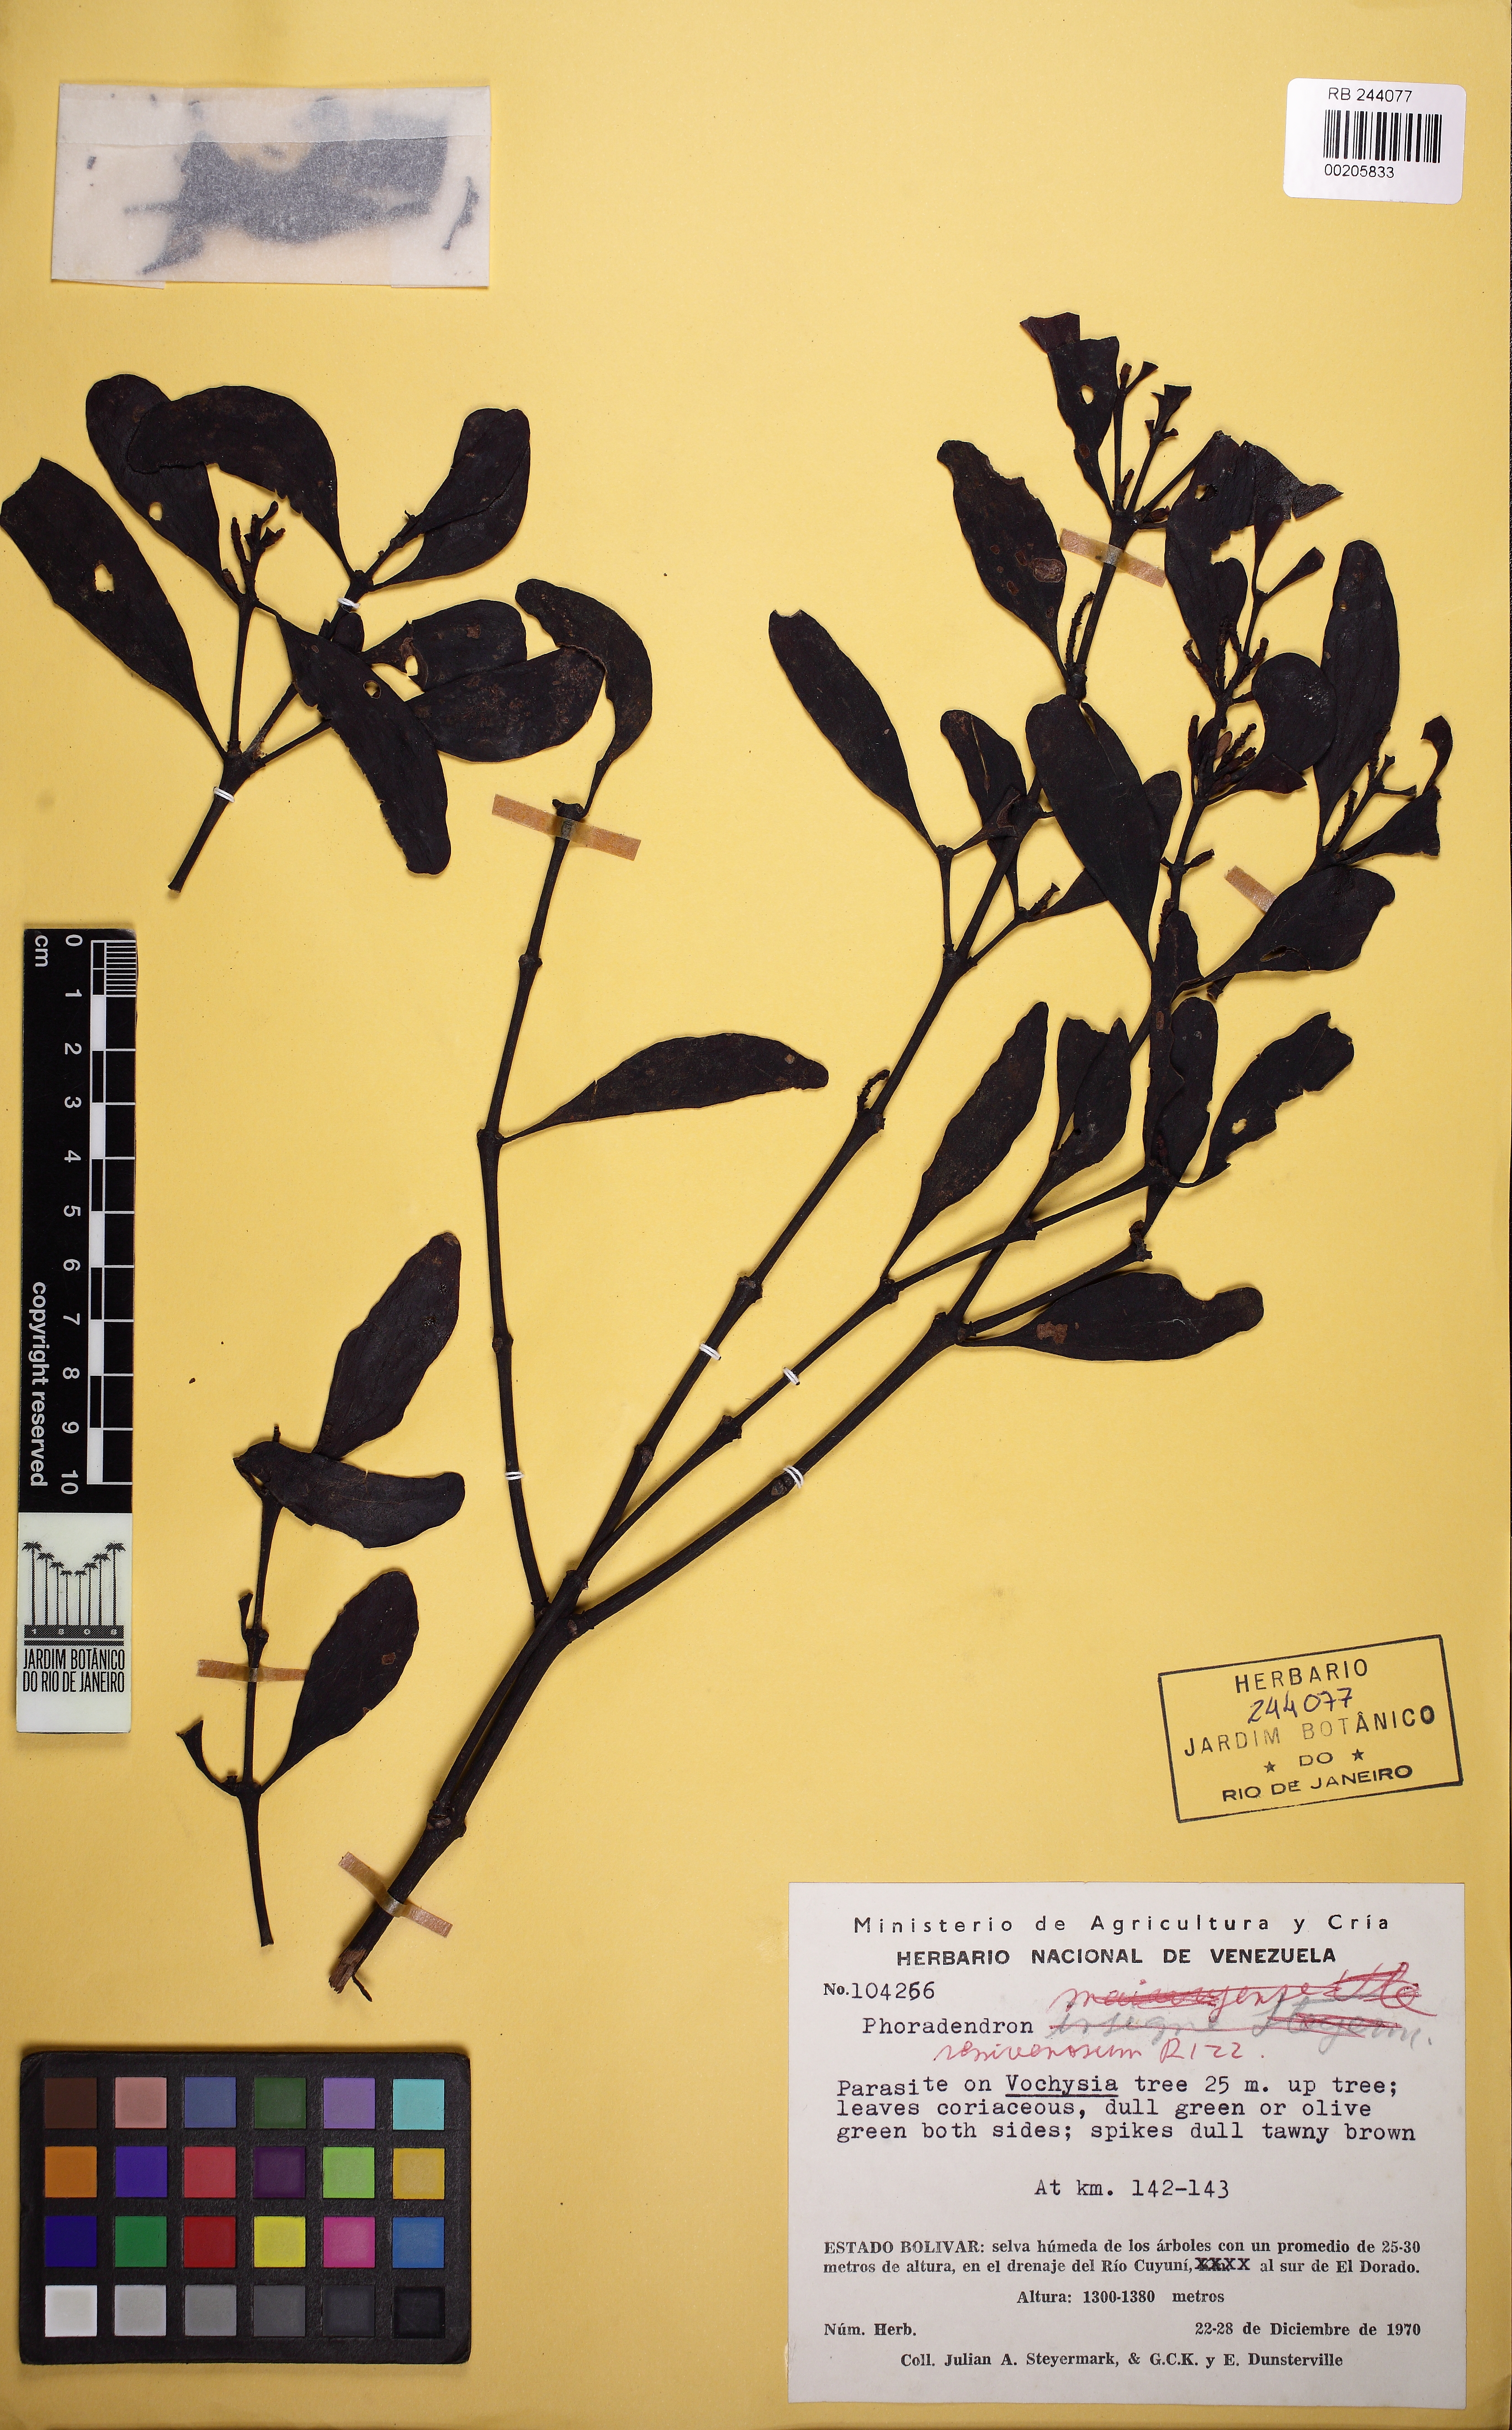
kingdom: Plantae
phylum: Tracheophyta
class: Magnoliopsida
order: Santalales
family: Viscaceae
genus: Phoradendron
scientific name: Phoradendron pellucidulum
